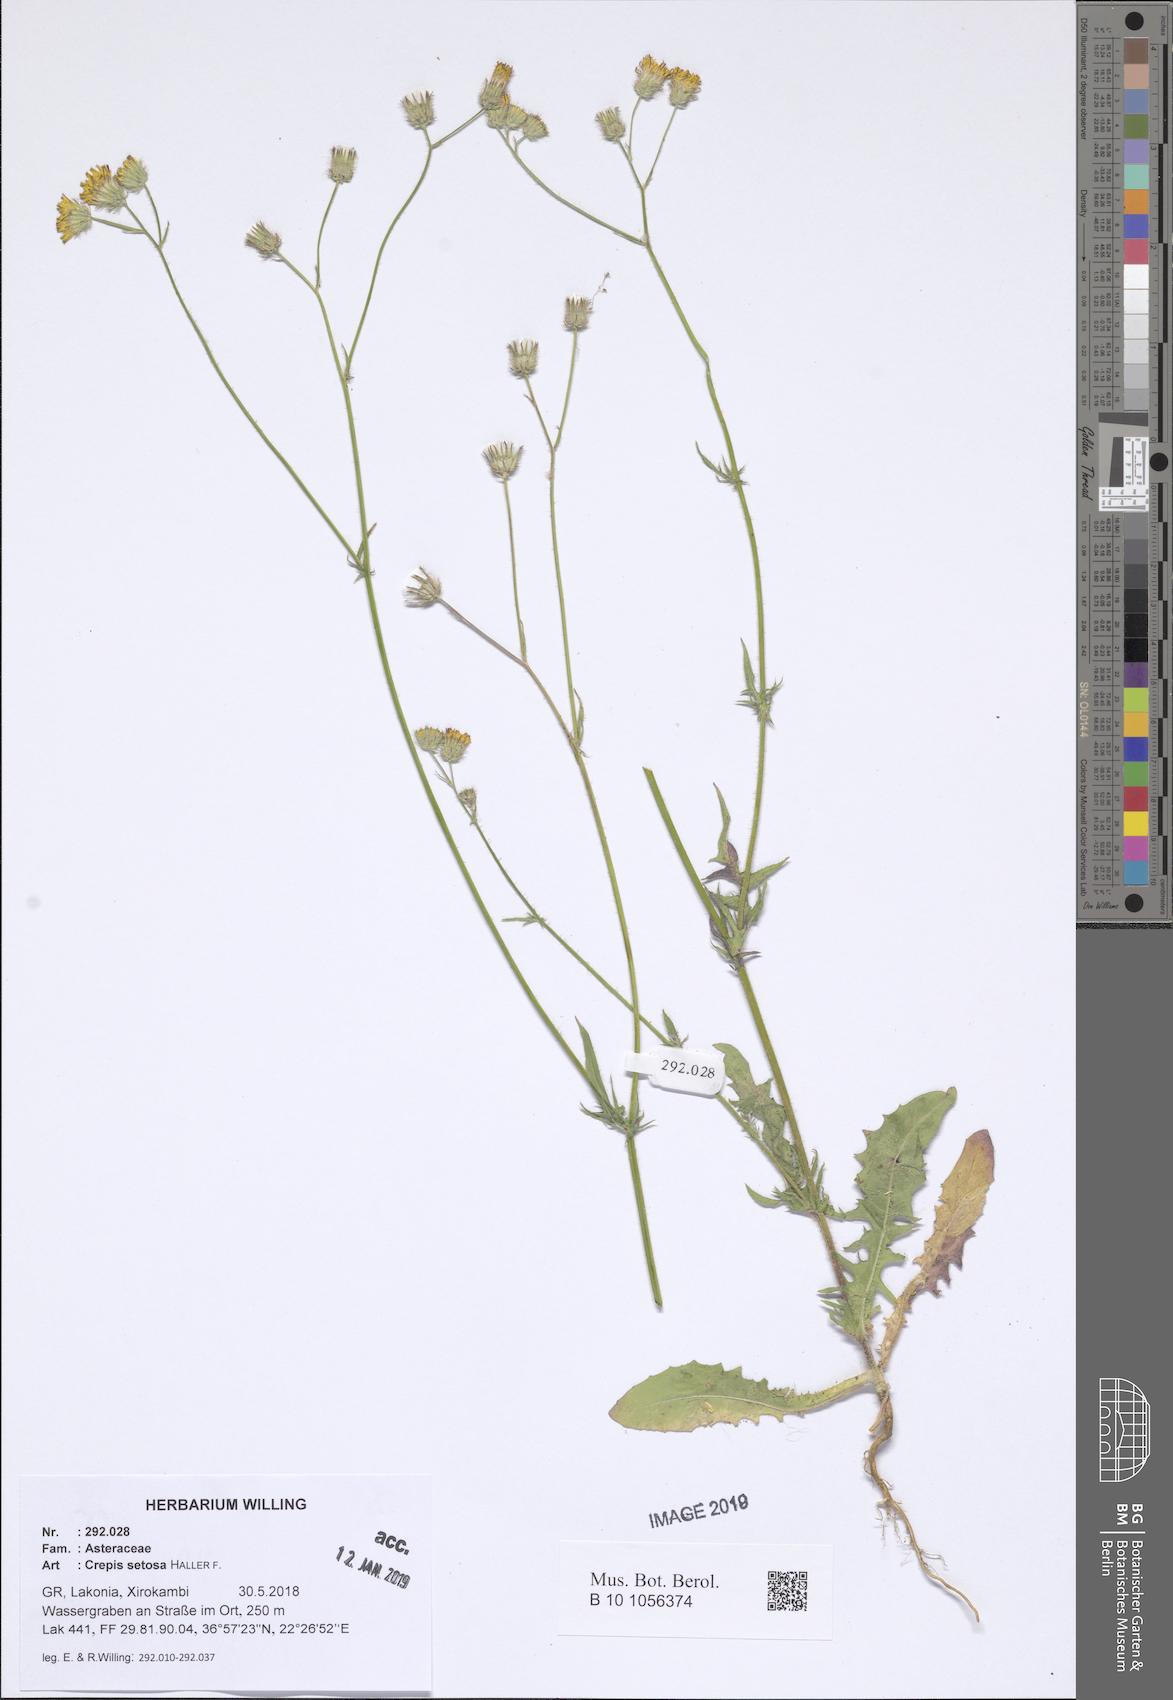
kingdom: Plantae
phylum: Tracheophyta
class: Magnoliopsida
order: Asterales
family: Asteraceae
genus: Crepis
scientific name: Crepis setosa
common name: Bristly hawk's-beard
